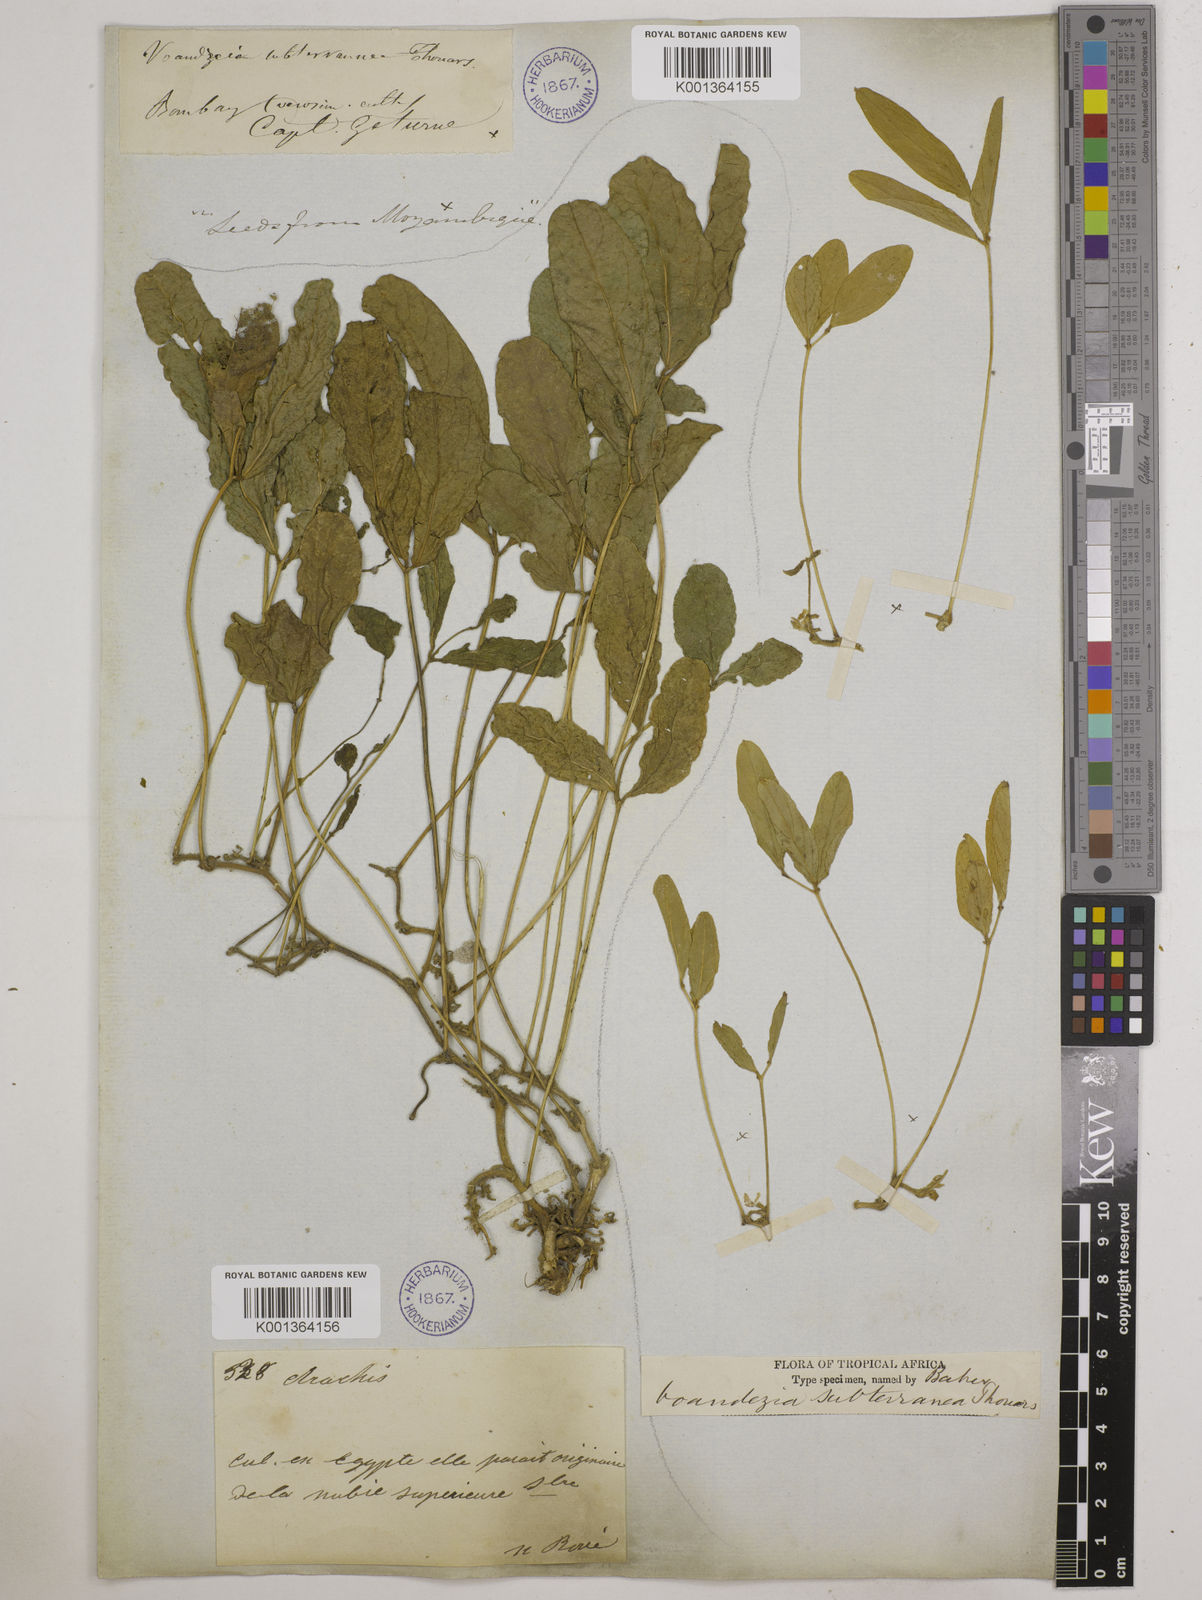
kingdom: Plantae
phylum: Tracheophyta
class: Magnoliopsida
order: Fabales
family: Fabaceae
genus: Vigna
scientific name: Vigna subterranea
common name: Bambara groundnut
